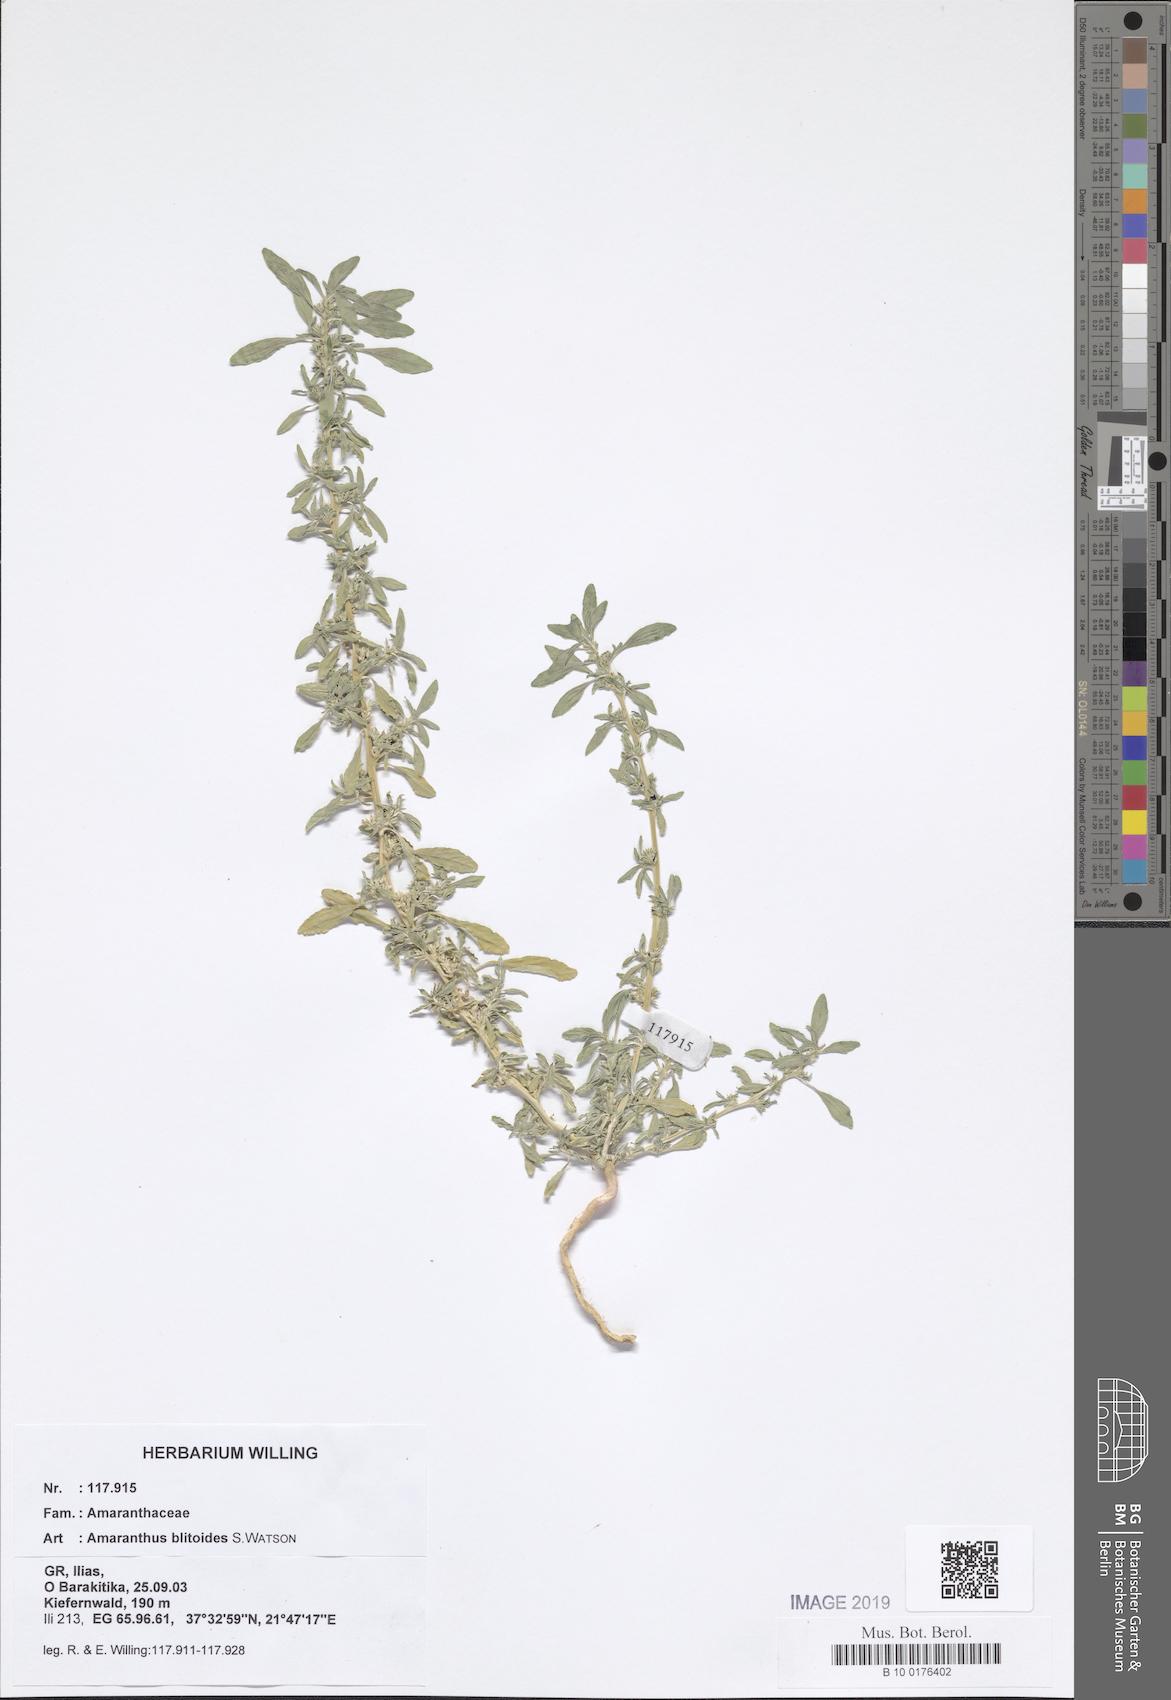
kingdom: Plantae
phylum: Tracheophyta
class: Magnoliopsida
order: Caryophyllales
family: Amaranthaceae
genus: Amaranthus
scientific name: Amaranthus blitoides
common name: Prostrate pigweed
